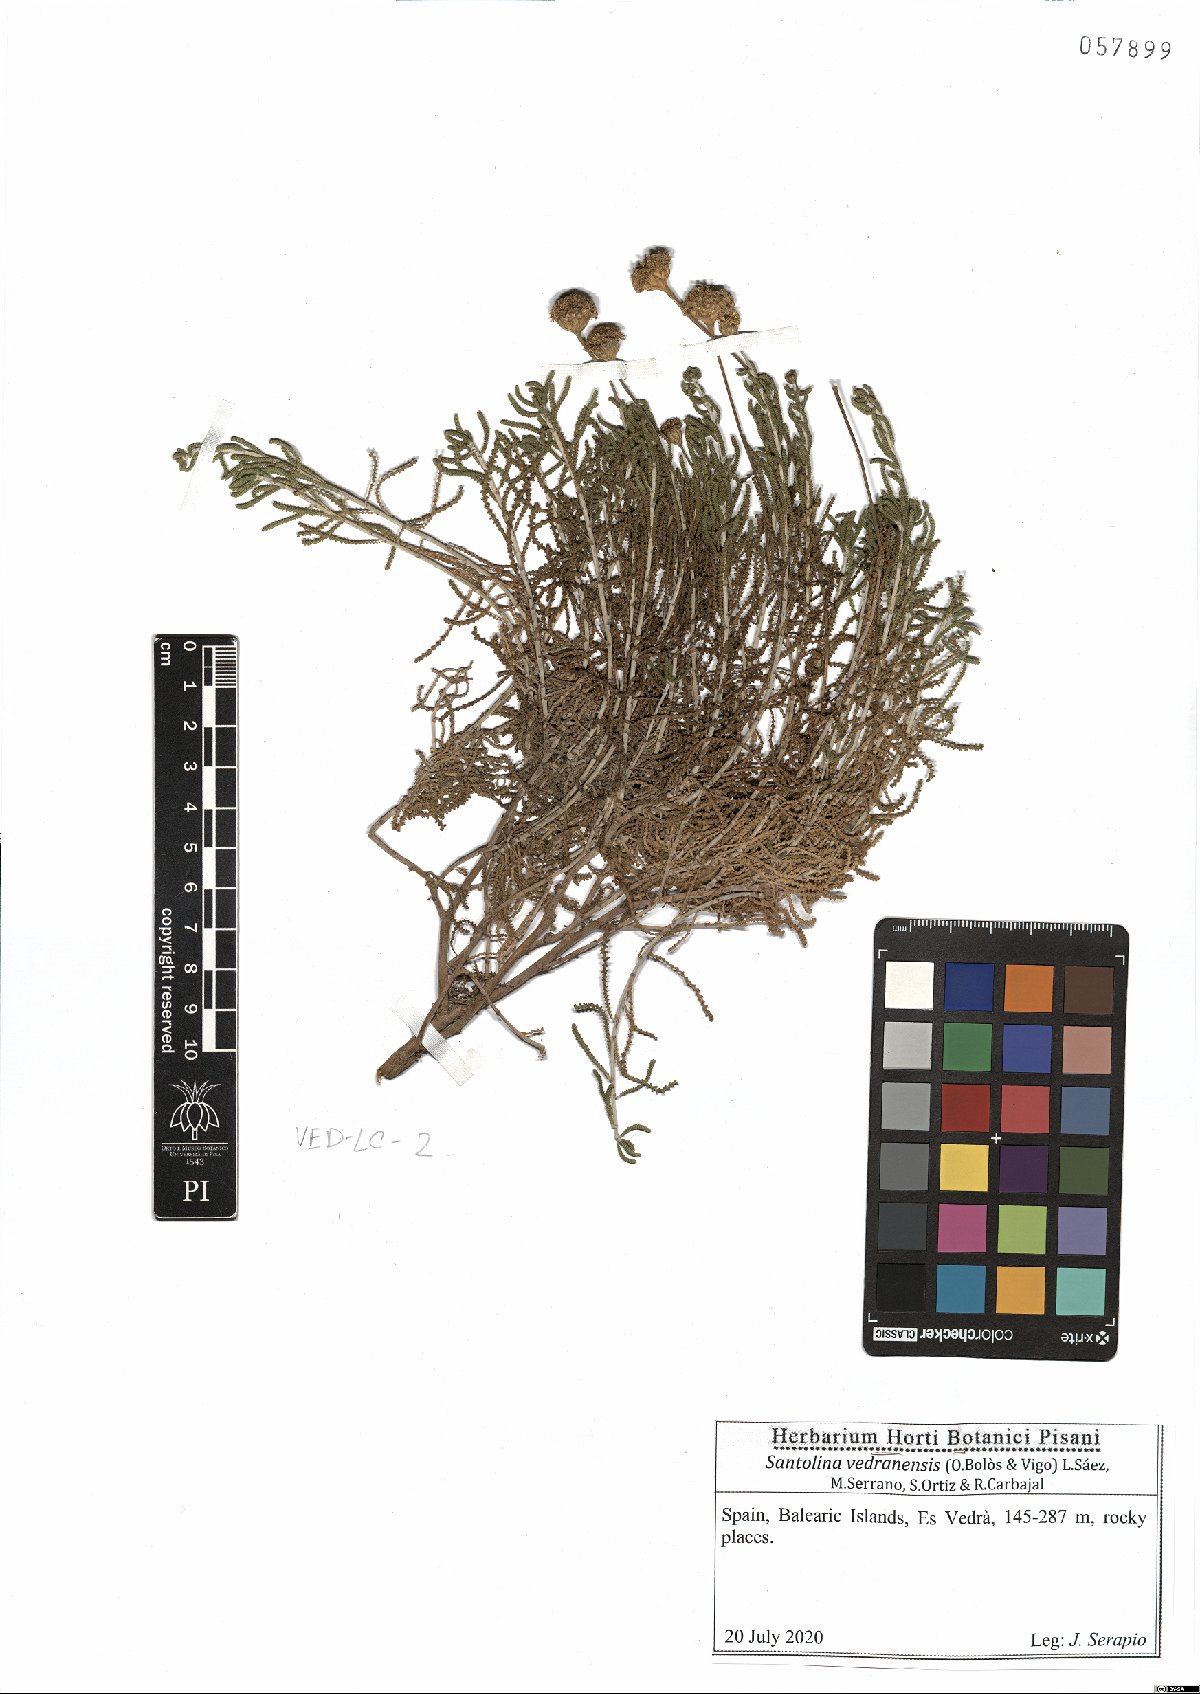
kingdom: Plantae
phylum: Tracheophyta
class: Magnoliopsida
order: Asterales
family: Asteraceae
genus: Santolina
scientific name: Santolina vedranensis
